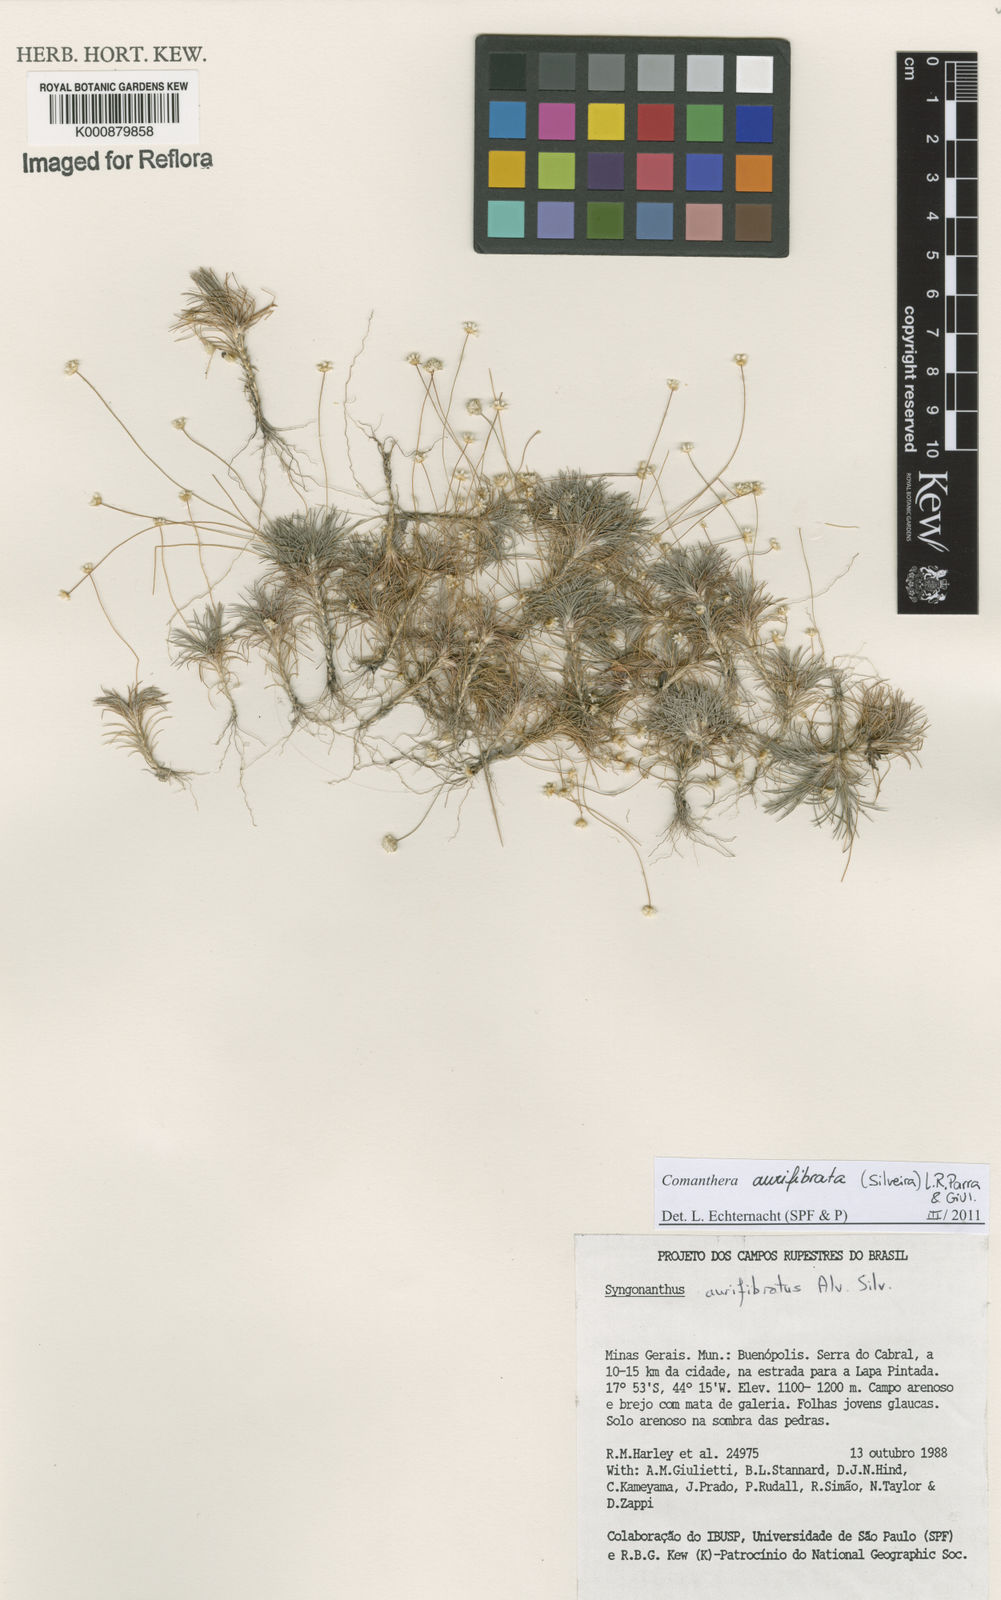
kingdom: Plantae
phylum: Tracheophyta
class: Liliopsida
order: Poales
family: Eriocaulaceae
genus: Comanthera
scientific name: Comanthera aurifibrata
